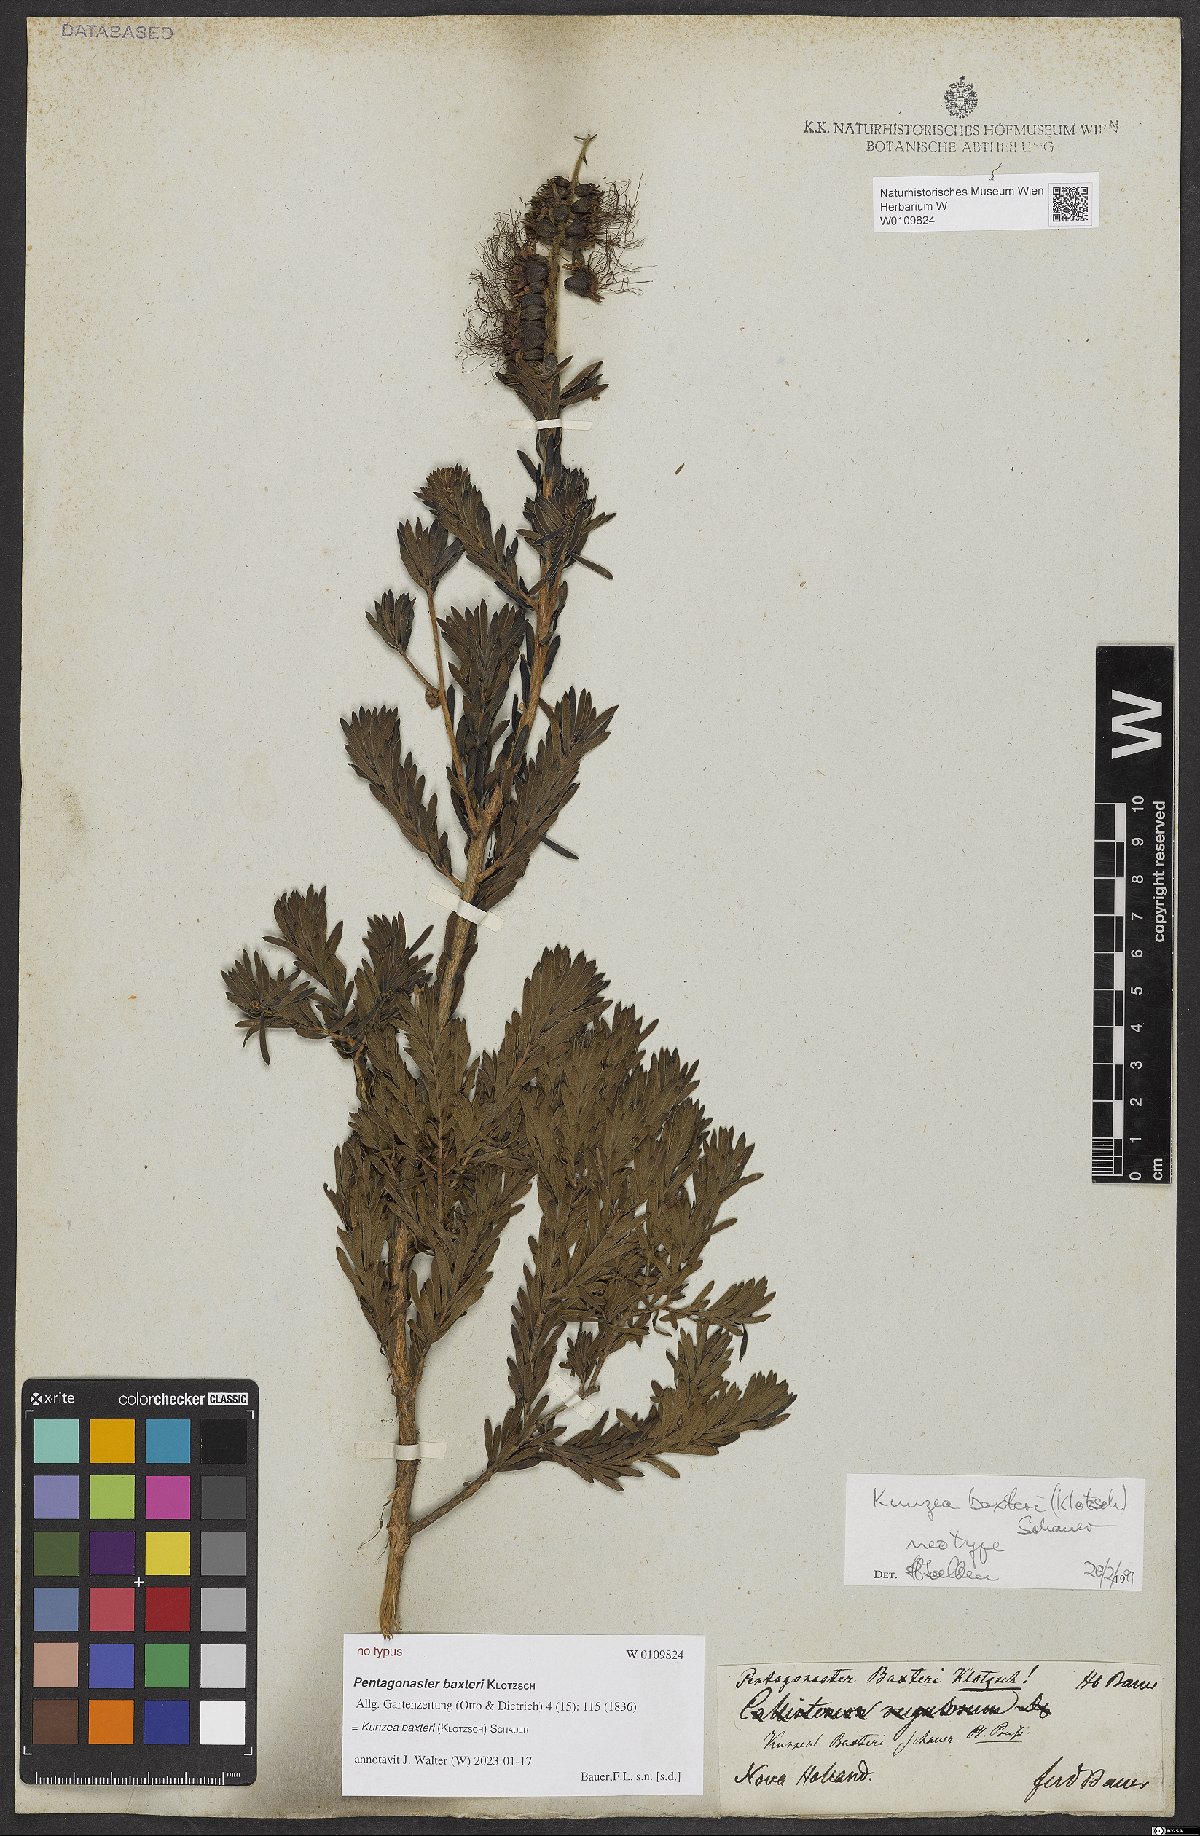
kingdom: Plantae
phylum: Tracheophyta
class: Magnoliopsida
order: Myrtales
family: Myrtaceae
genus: Kunzea
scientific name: Kunzea baxteri
